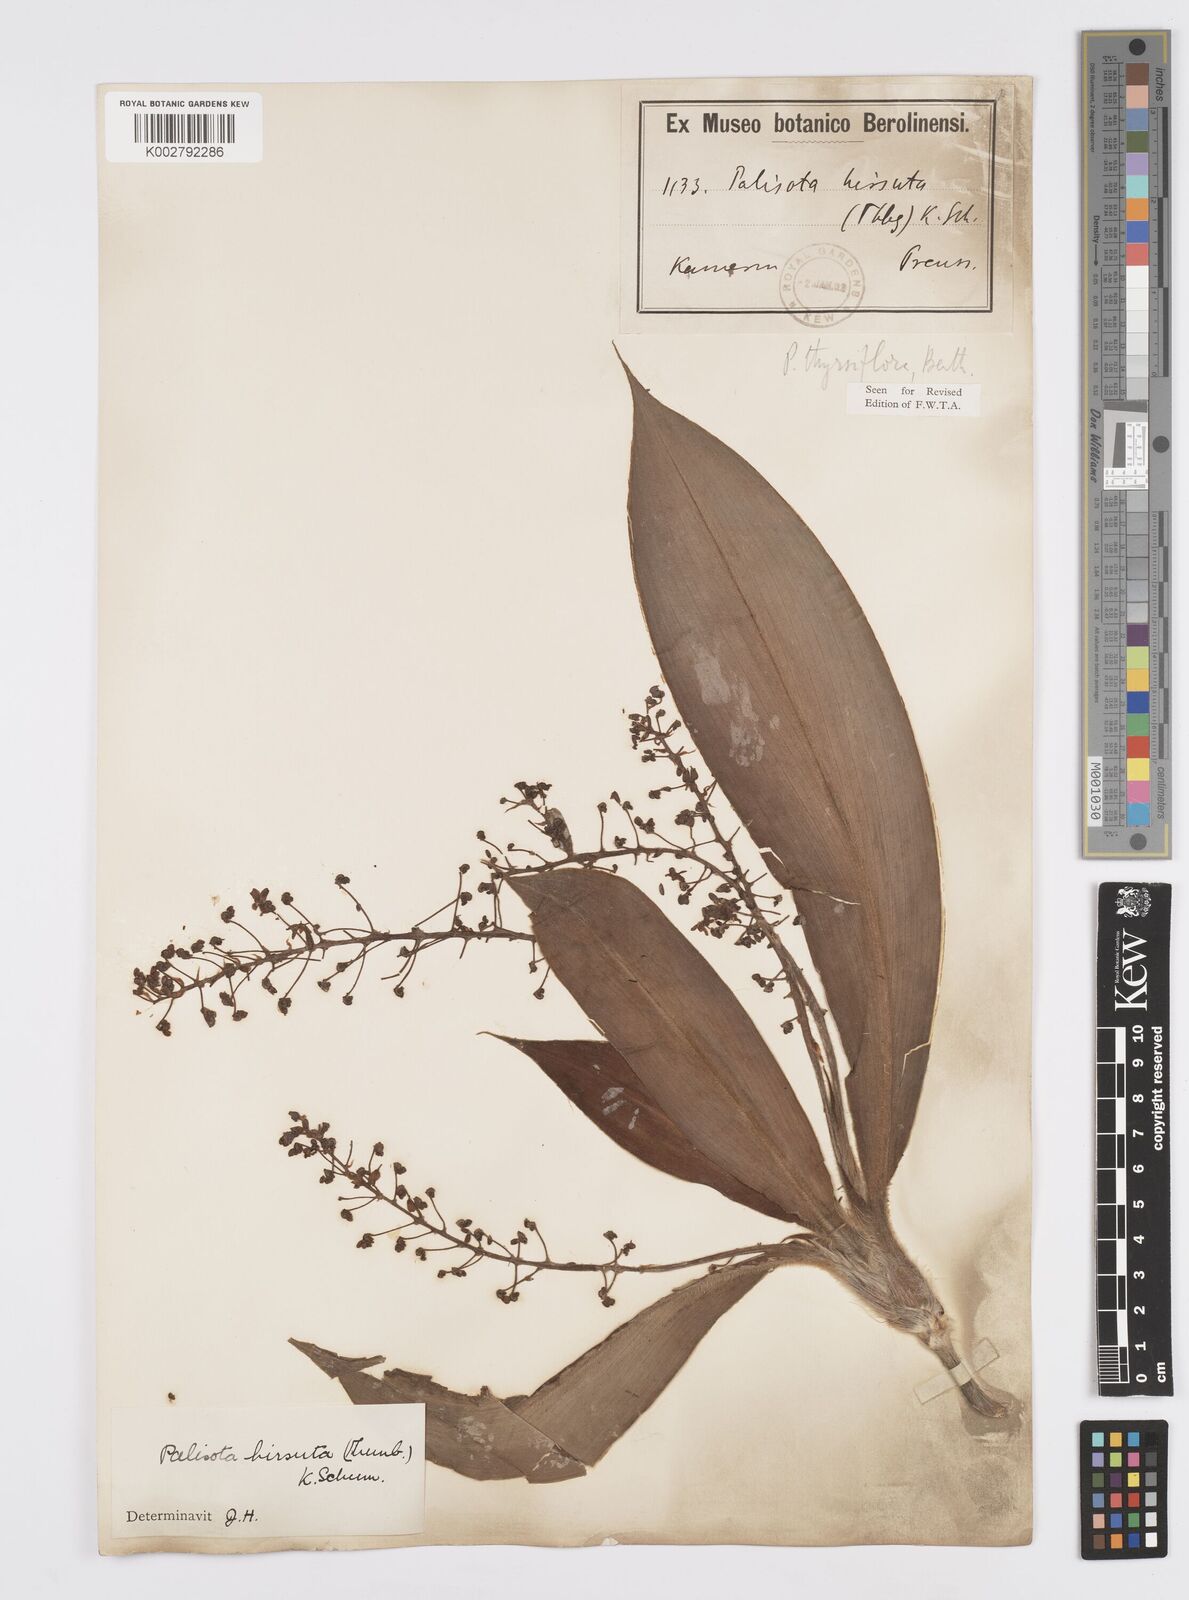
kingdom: Plantae
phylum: Tracheophyta
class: Liliopsida
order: Commelinales
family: Commelinaceae
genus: Palisota
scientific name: Palisota hirsuta
